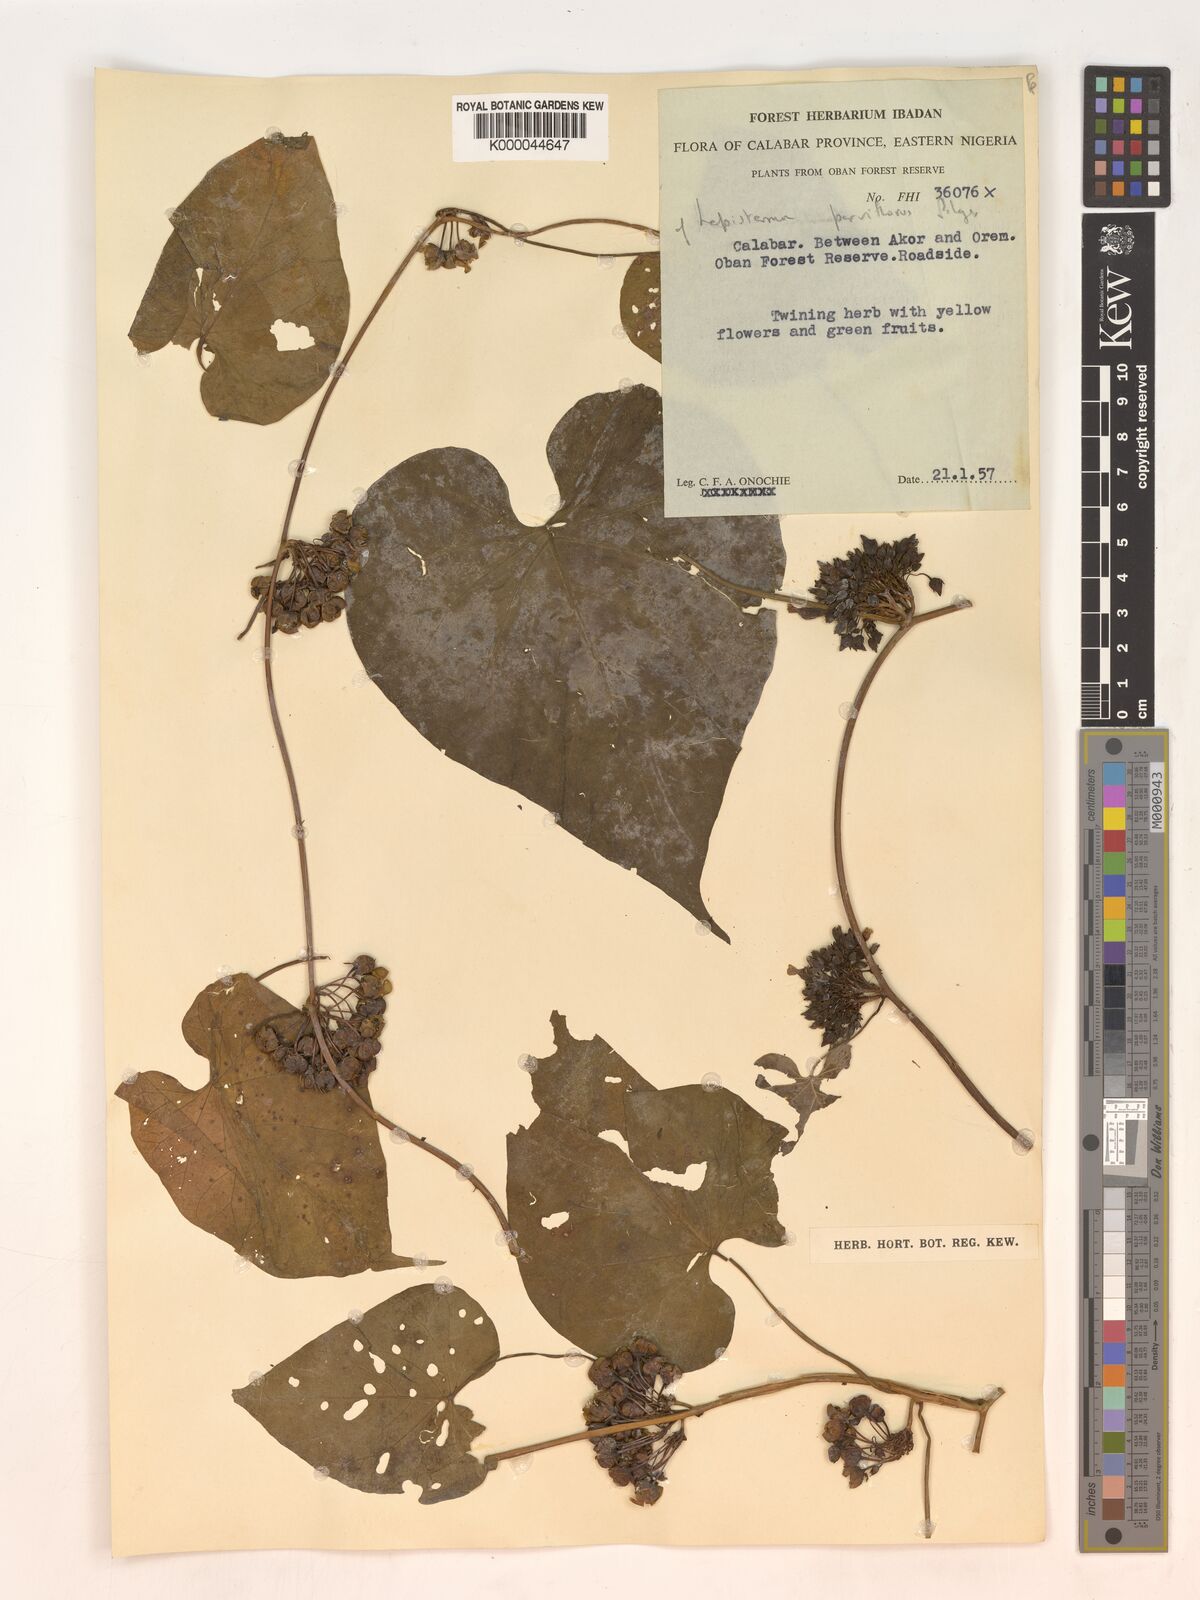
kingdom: Plantae
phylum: Tracheophyta
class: Magnoliopsida
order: Solanales
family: Convolvulaceae
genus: Lepistemon
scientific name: Lepistemon
